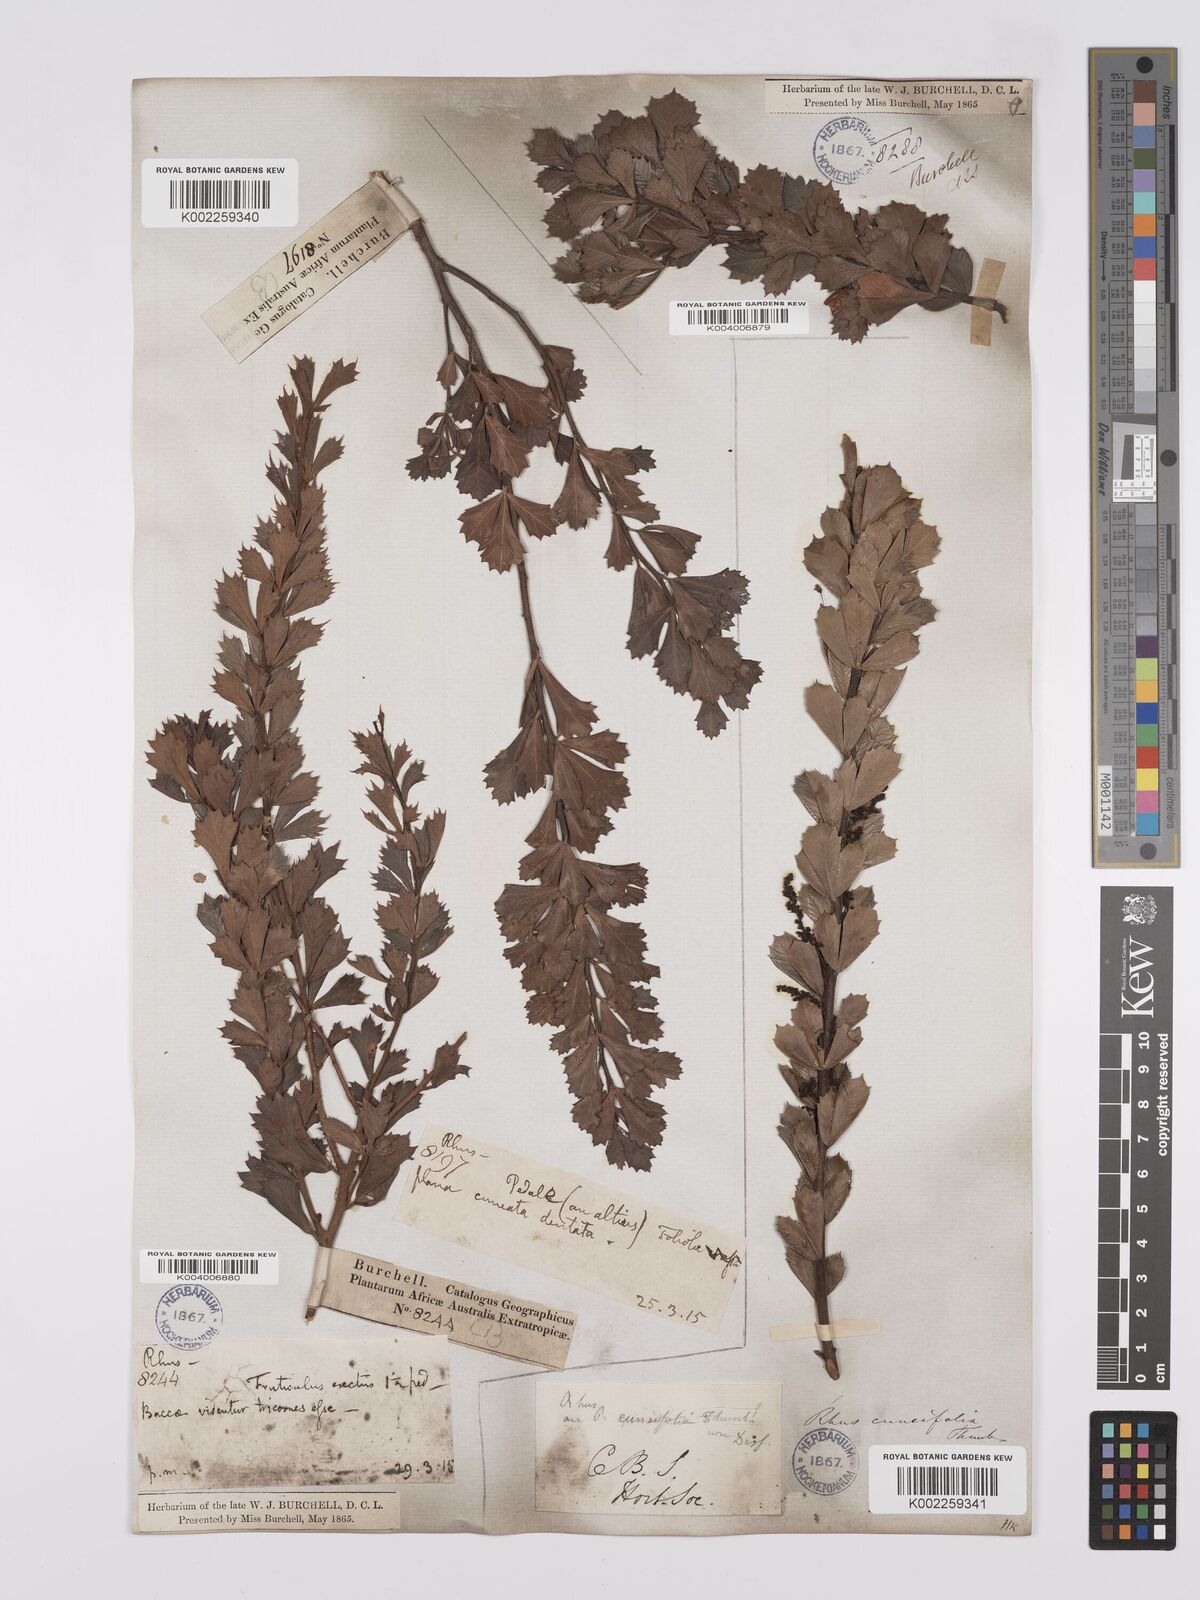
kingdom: Plantae
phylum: Tracheophyta
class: Magnoliopsida
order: Sapindales
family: Anacardiaceae
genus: Searsia
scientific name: Searsia cuneifolia
